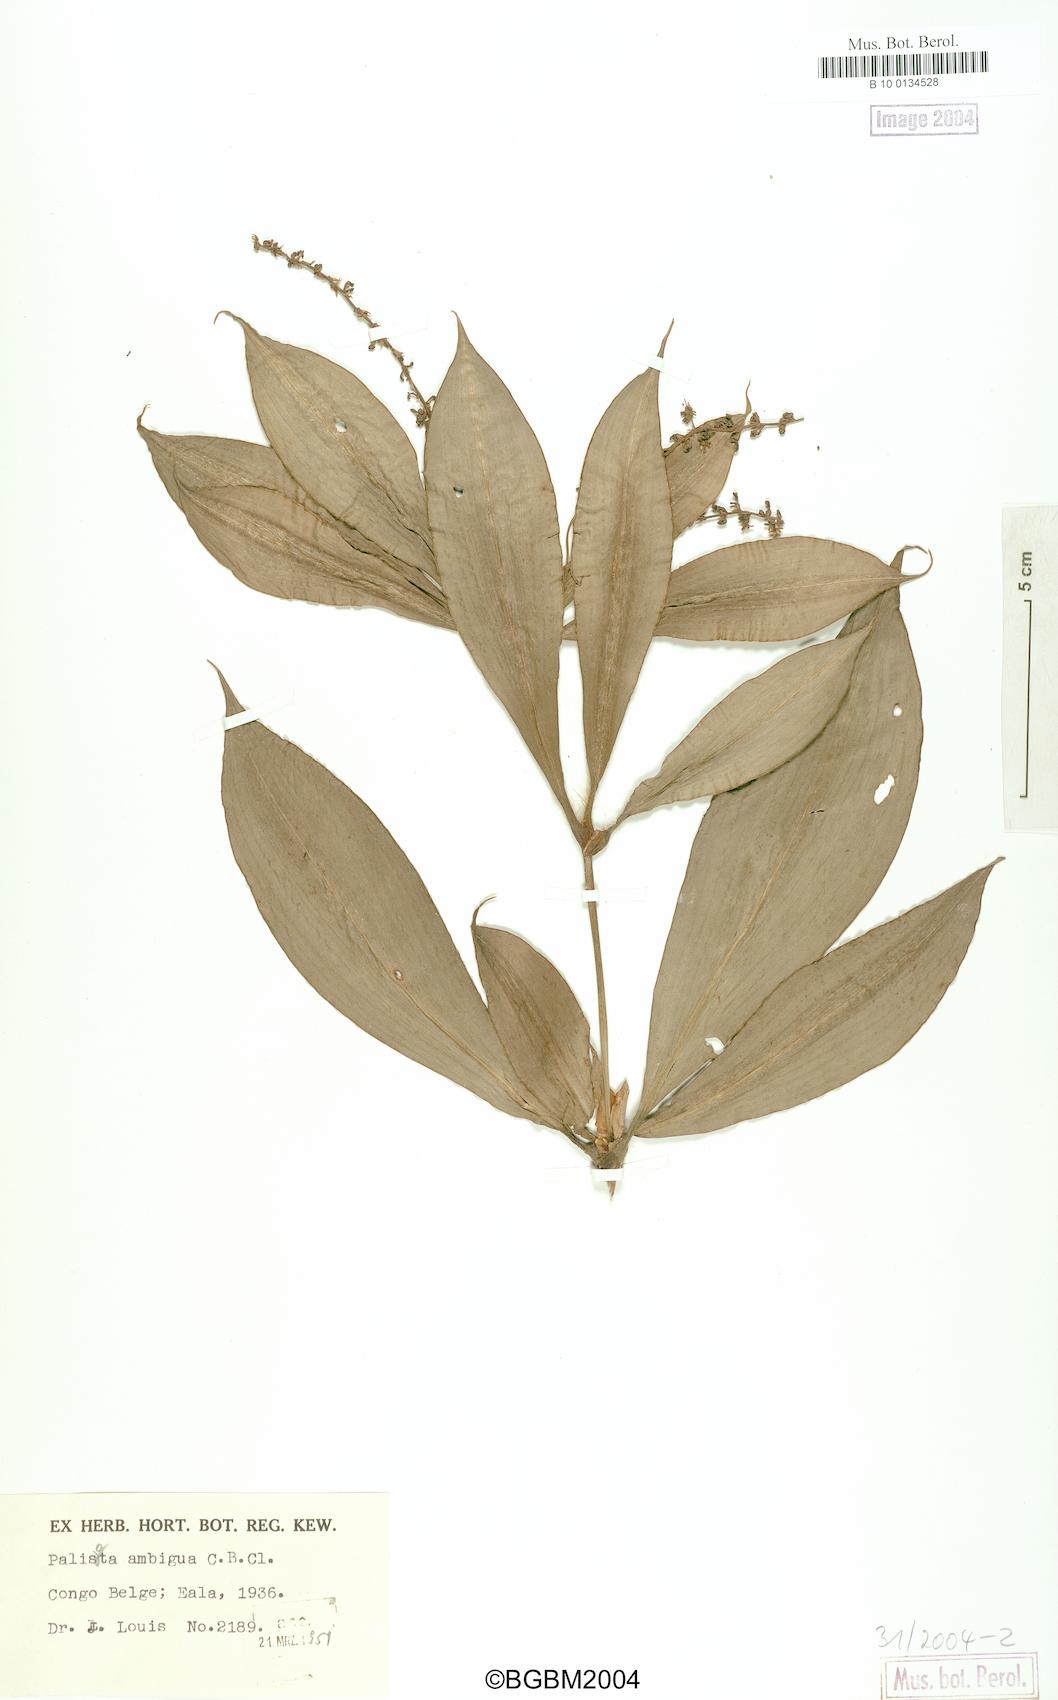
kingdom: Plantae
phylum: Tracheophyta
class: Liliopsida
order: Commelinales
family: Commelinaceae
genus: Palisota
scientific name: Palisota ambigua
